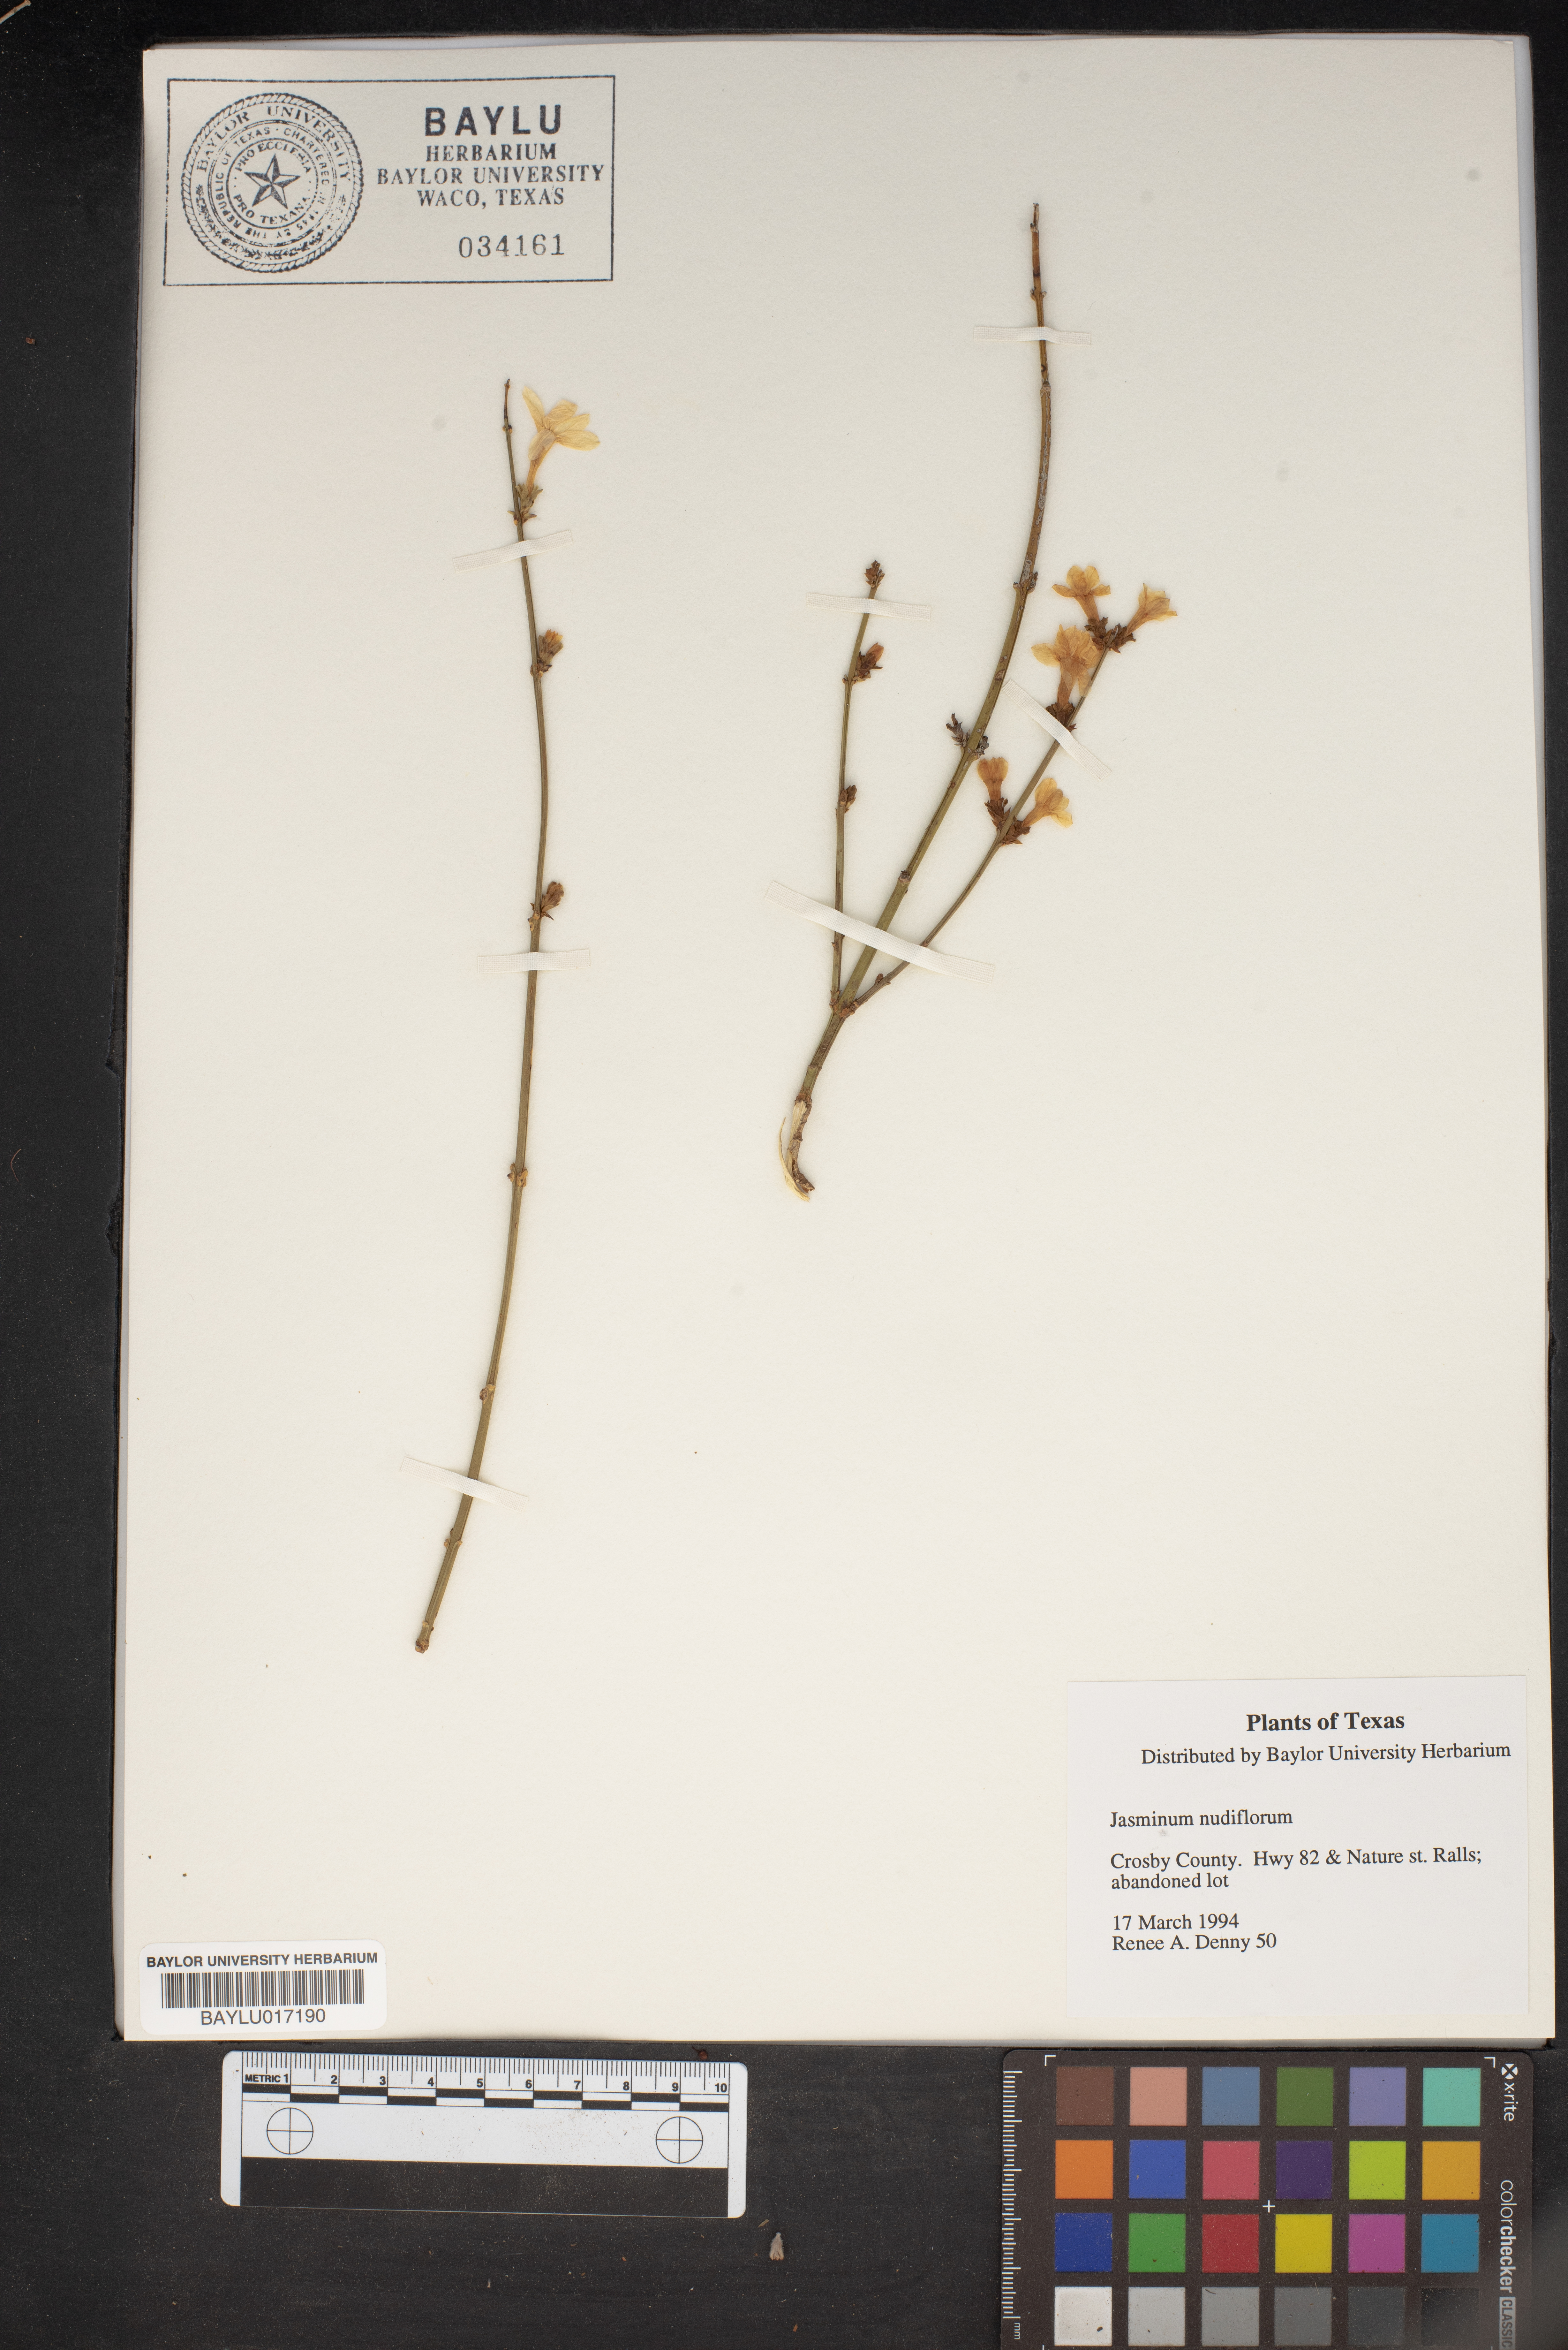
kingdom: Plantae
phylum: Tracheophyta
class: Magnoliopsida
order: Lamiales
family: Oleaceae
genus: Jasminum
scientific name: Jasminum nudiflorum
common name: Winter jasmine
